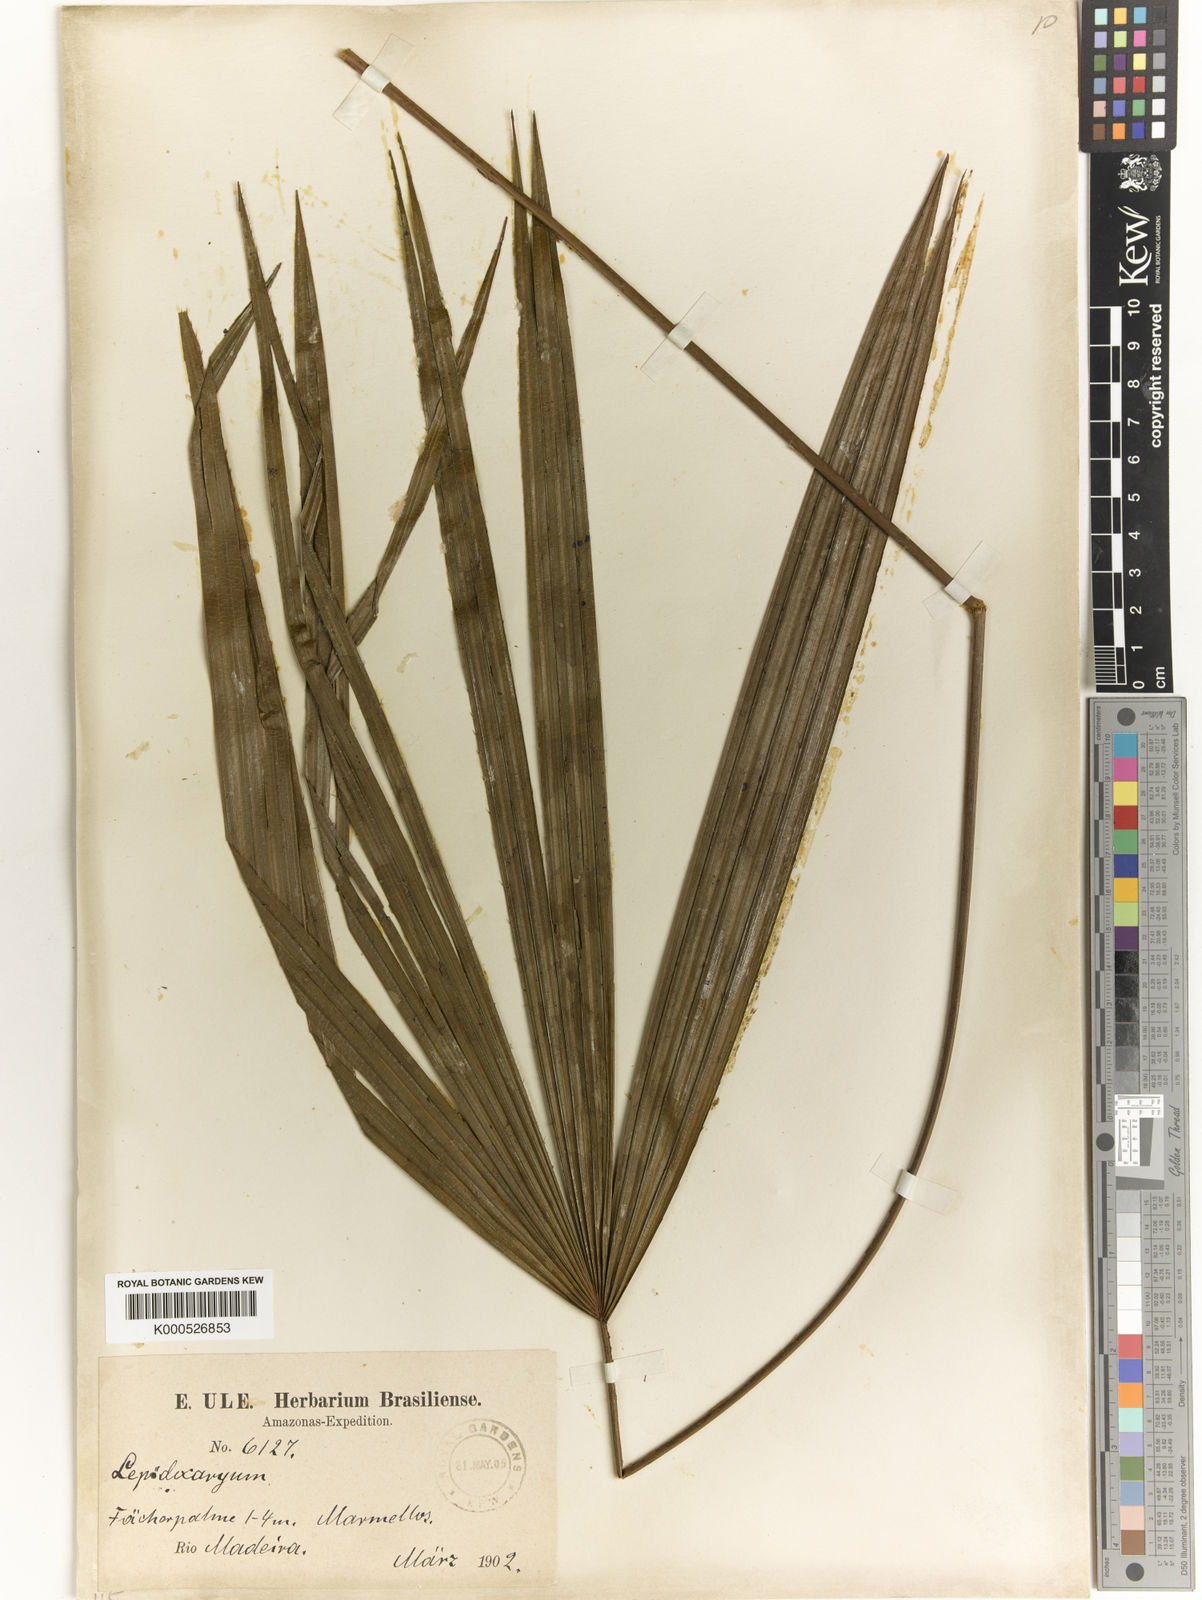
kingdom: Plantae
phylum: Tracheophyta
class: Liliopsida
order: Arecales
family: Arecaceae
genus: Lepidocaryum
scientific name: Lepidocaryum
